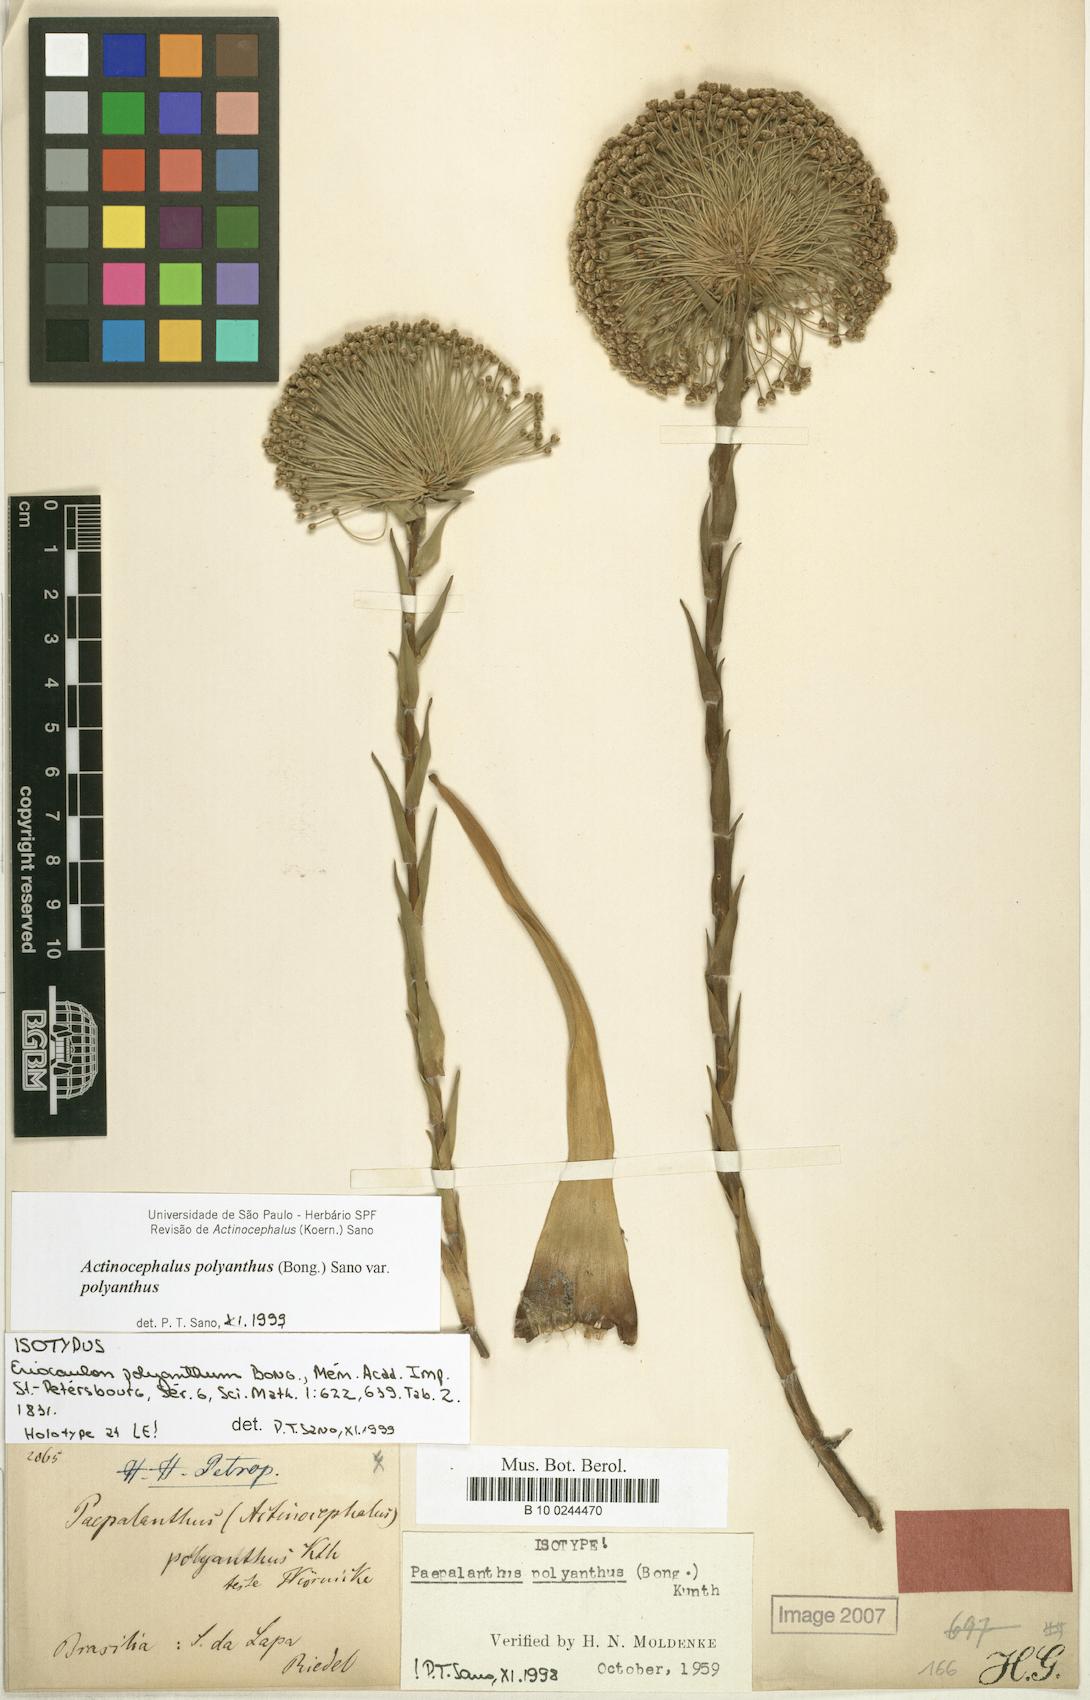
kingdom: Plantae
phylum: Tracheophyta
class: Liliopsida
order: Poales
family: Eriocaulaceae
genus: Paepalanthus
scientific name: Paepalanthus polyanthus
